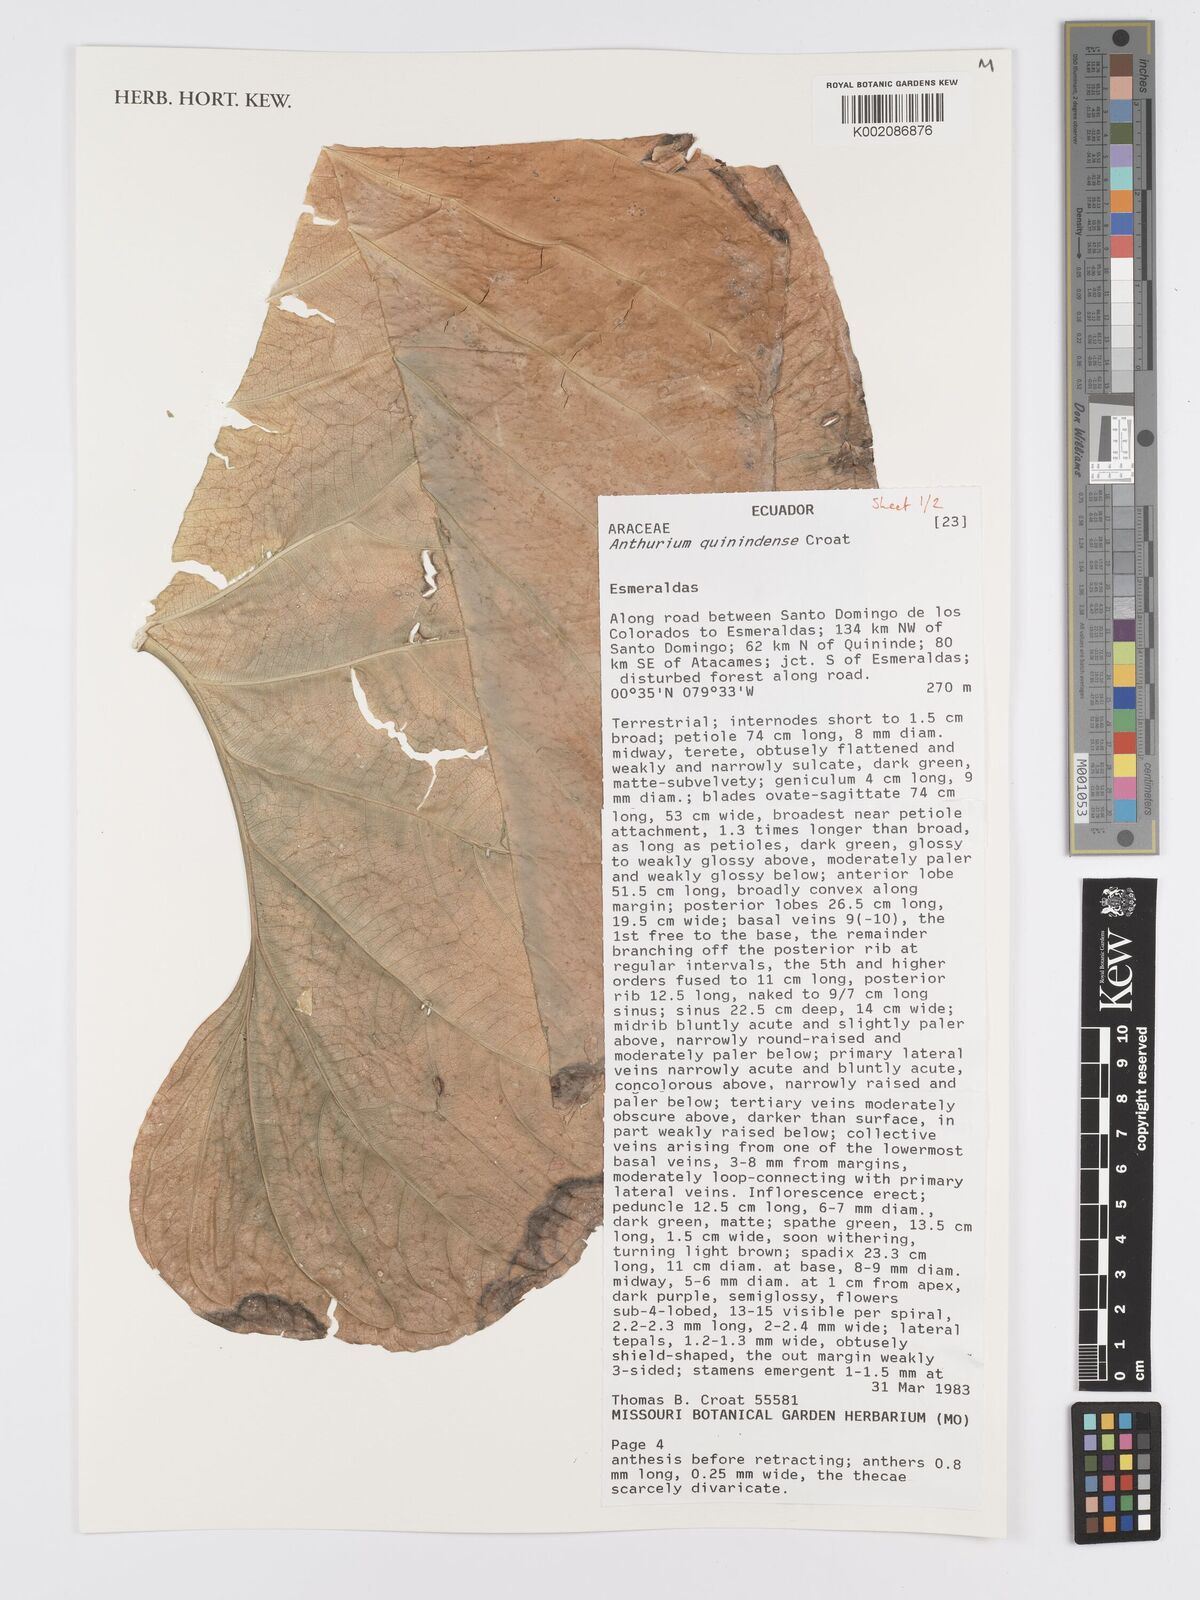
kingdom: Plantae
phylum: Tracheophyta
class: Liliopsida
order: Alismatales
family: Araceae
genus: Anthurium
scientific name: Anthurium quinindense
